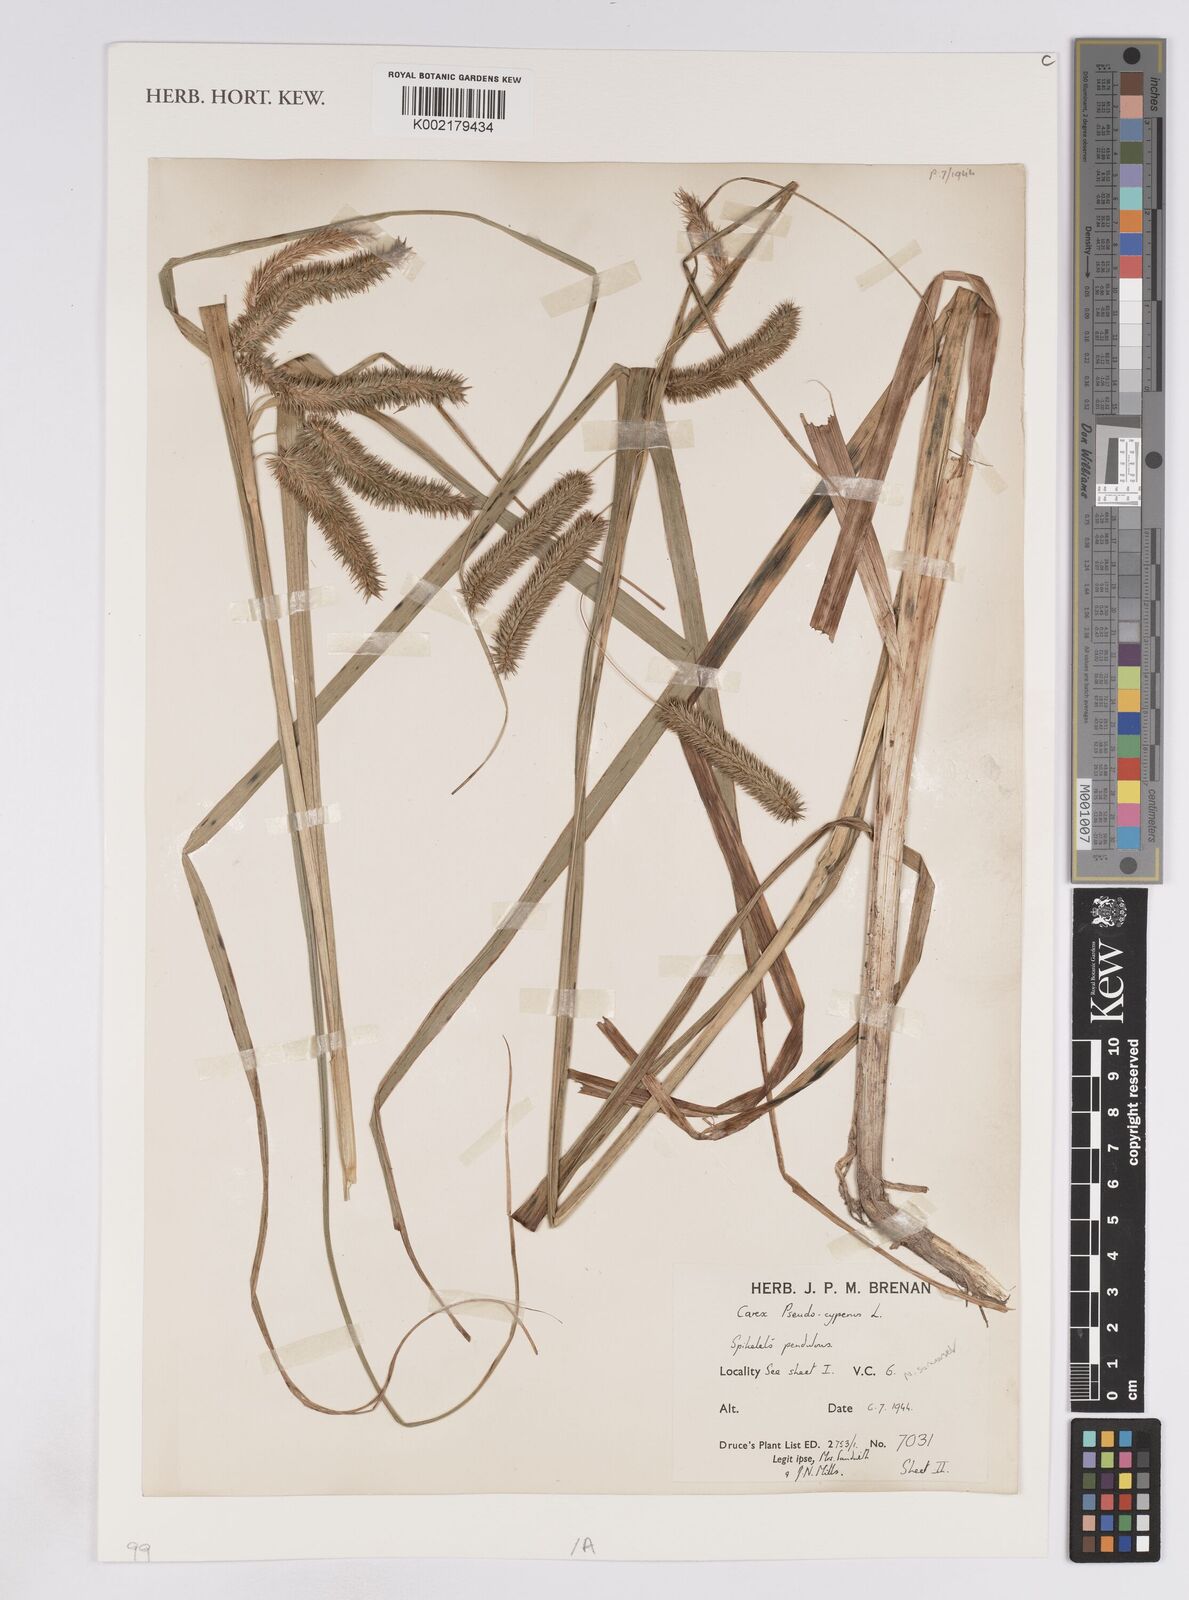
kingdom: Plantae
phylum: Tracheophyta
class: Liliopsida
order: Poales
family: Cyperaceae
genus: Carex
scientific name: Carex pseudocyperus
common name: Cyperus sedge
